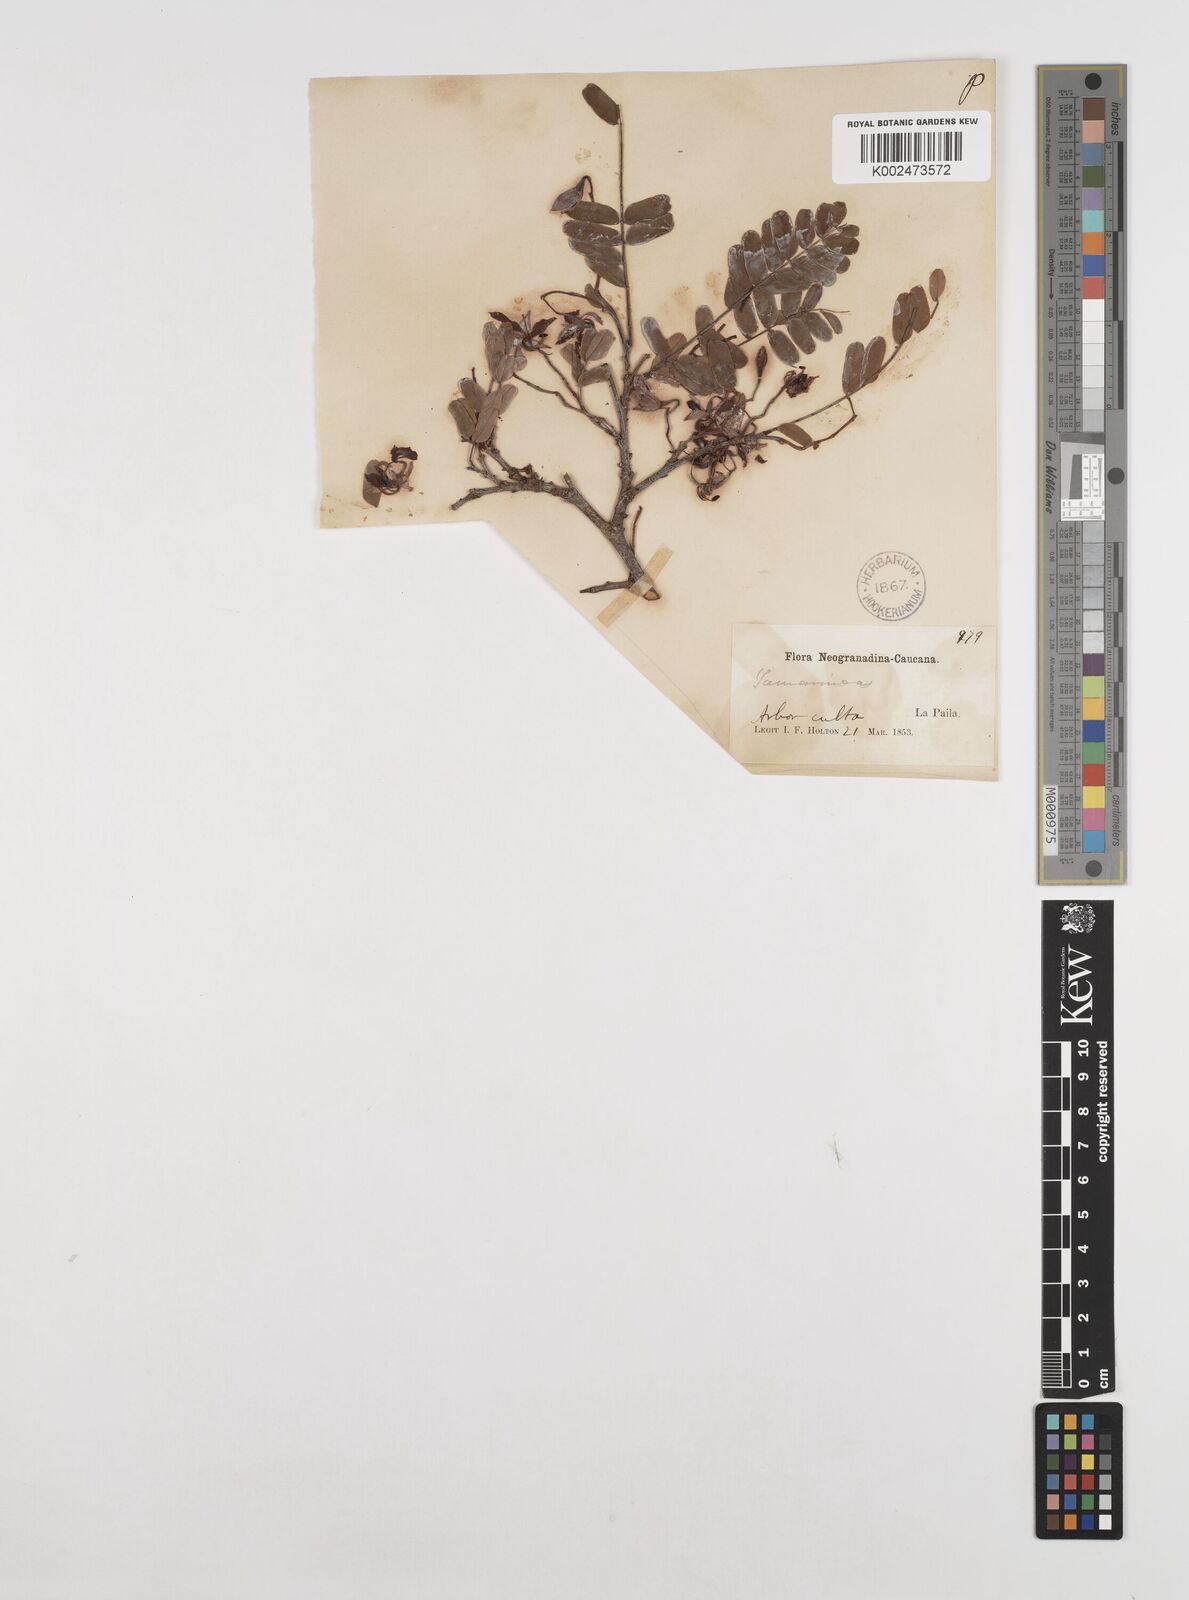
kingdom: Plantae
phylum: Tracheophyta
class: Magnoliopsida
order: Fabales
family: Fabaceae
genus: Tamarindus
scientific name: Tamarindus
